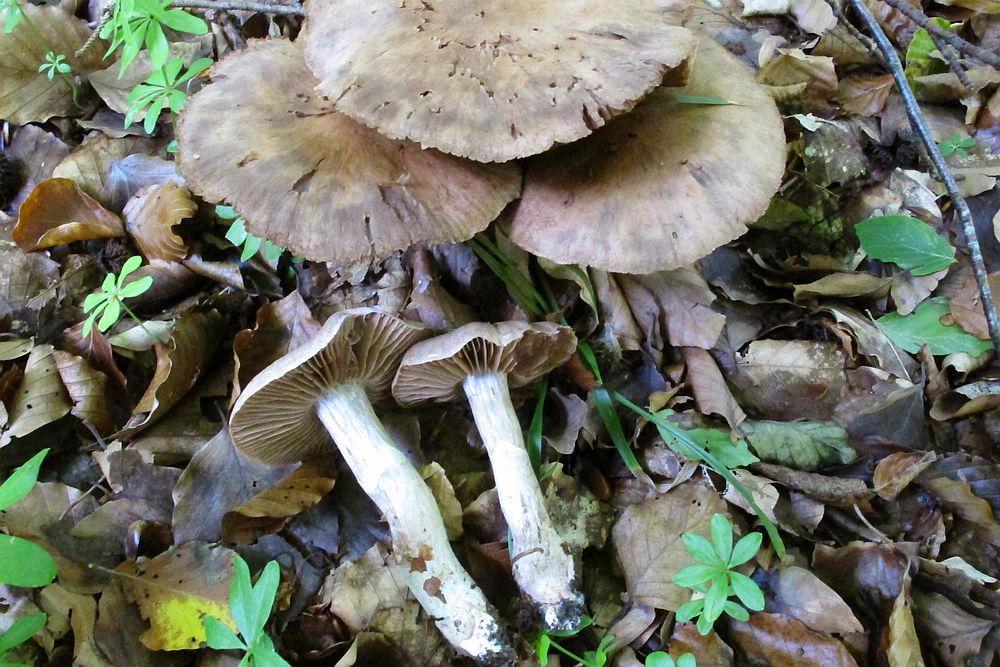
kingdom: Fungi
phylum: Basidiomycota
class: Agaricomycetes
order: Agaricales
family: Cortinariaceae
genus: Cortinarius
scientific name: Cortinarius torvus
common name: champignonagtig slørhat
